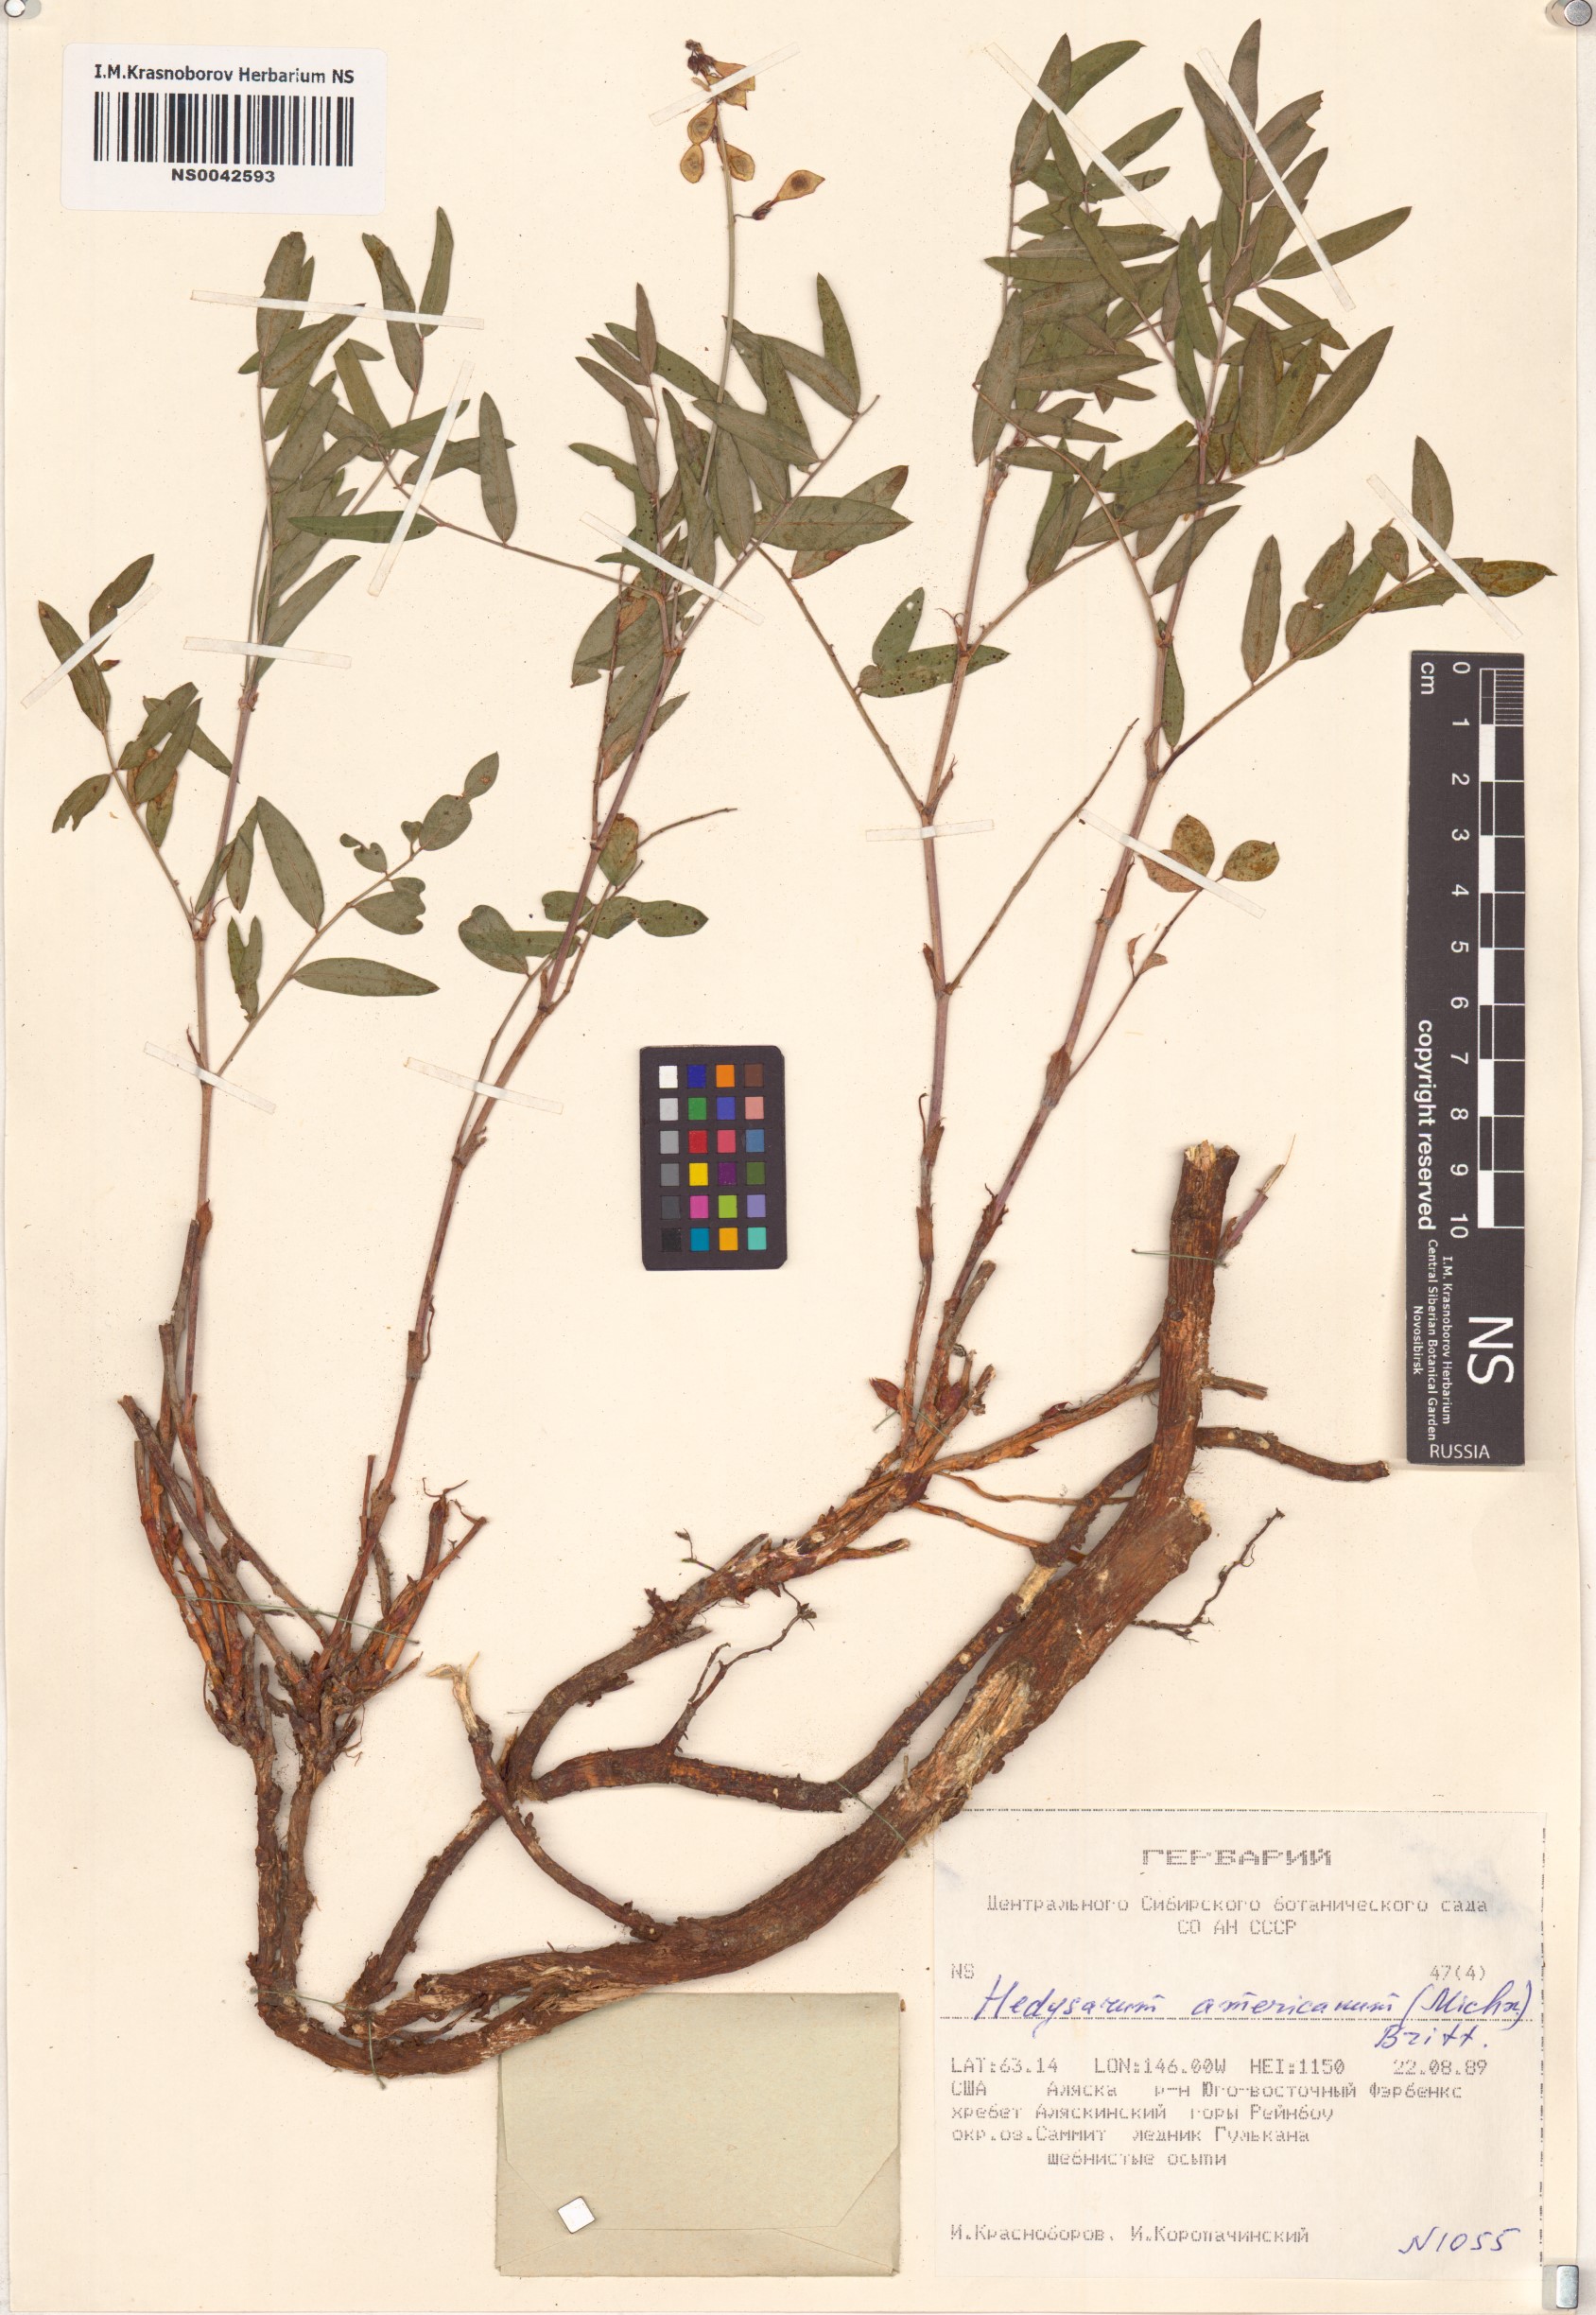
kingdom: Plantae
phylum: Tracheophyta
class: Magnoliopsida
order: Fabales
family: Fabaceae
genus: Hedysarum
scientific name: Hedysarum americanum
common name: Alpine hedysarum
